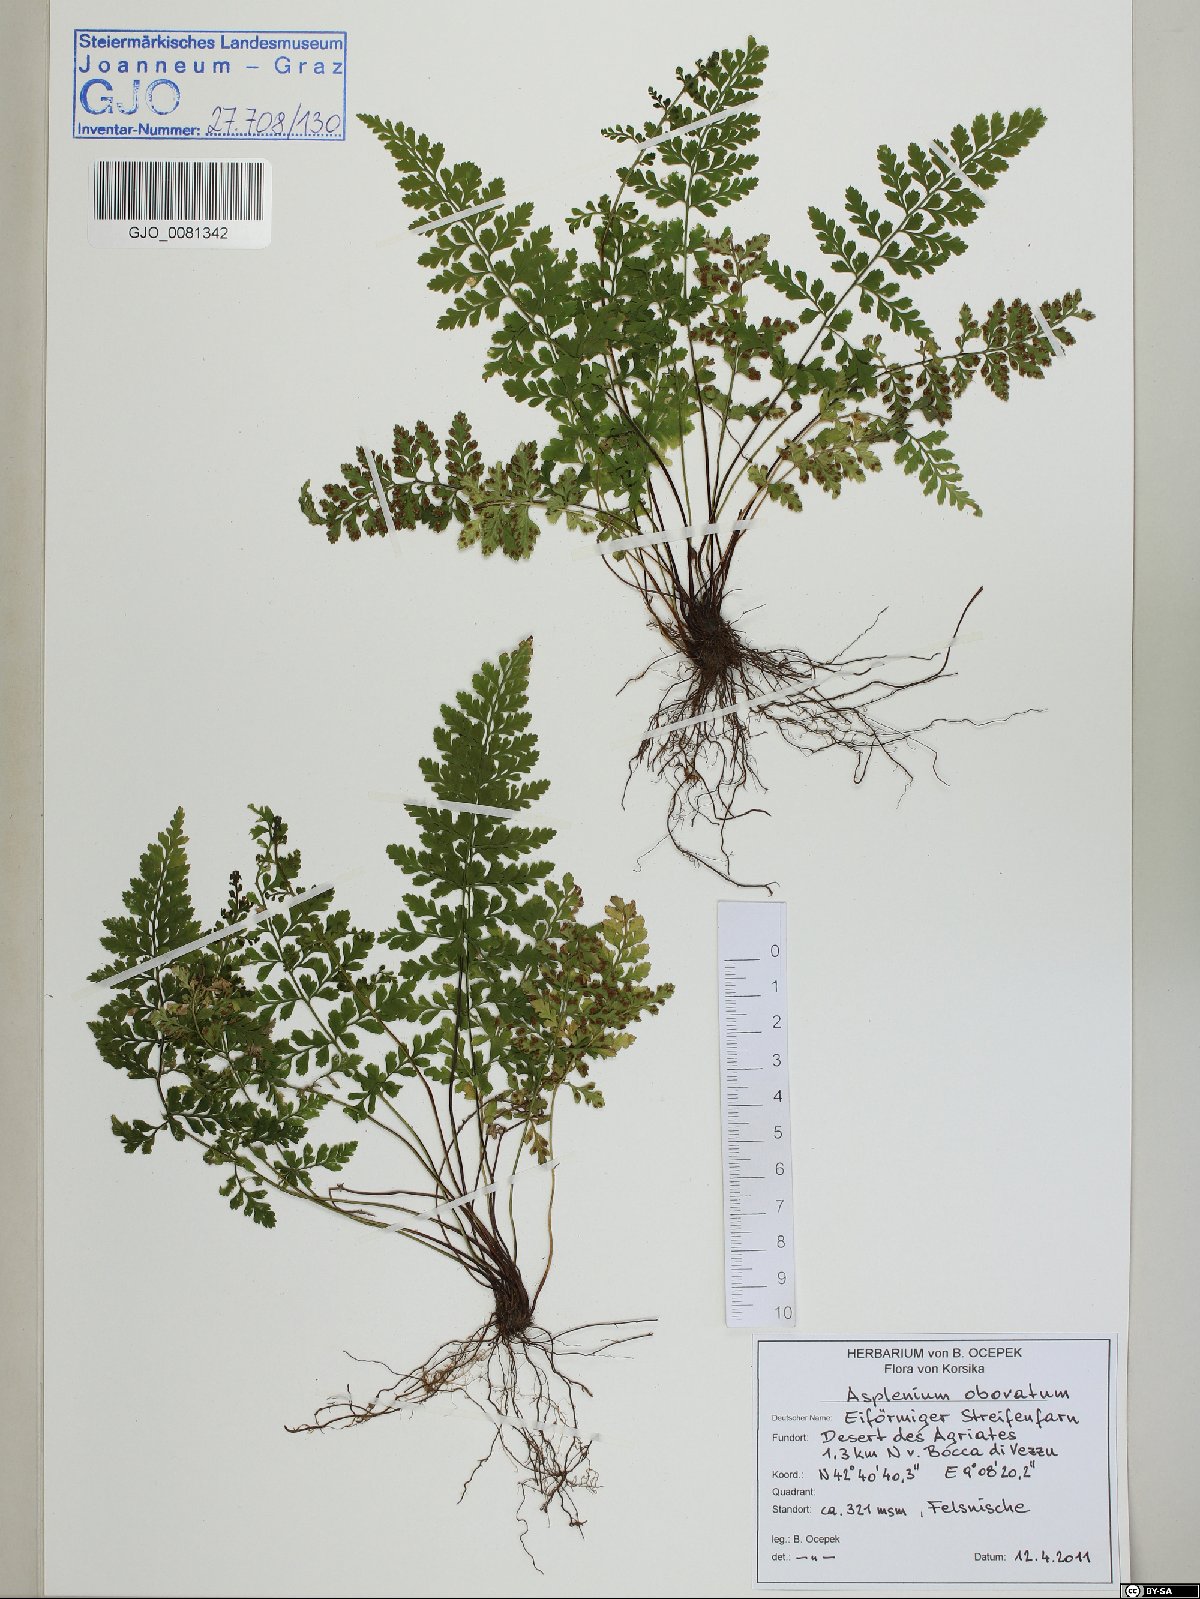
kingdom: Plantae
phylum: Tracheophyta
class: Polypodiopsida
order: Polypodiales
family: Aspleniaceae
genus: Asplenium
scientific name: Asplenium obovatum
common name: Lanceolate spleenwort
